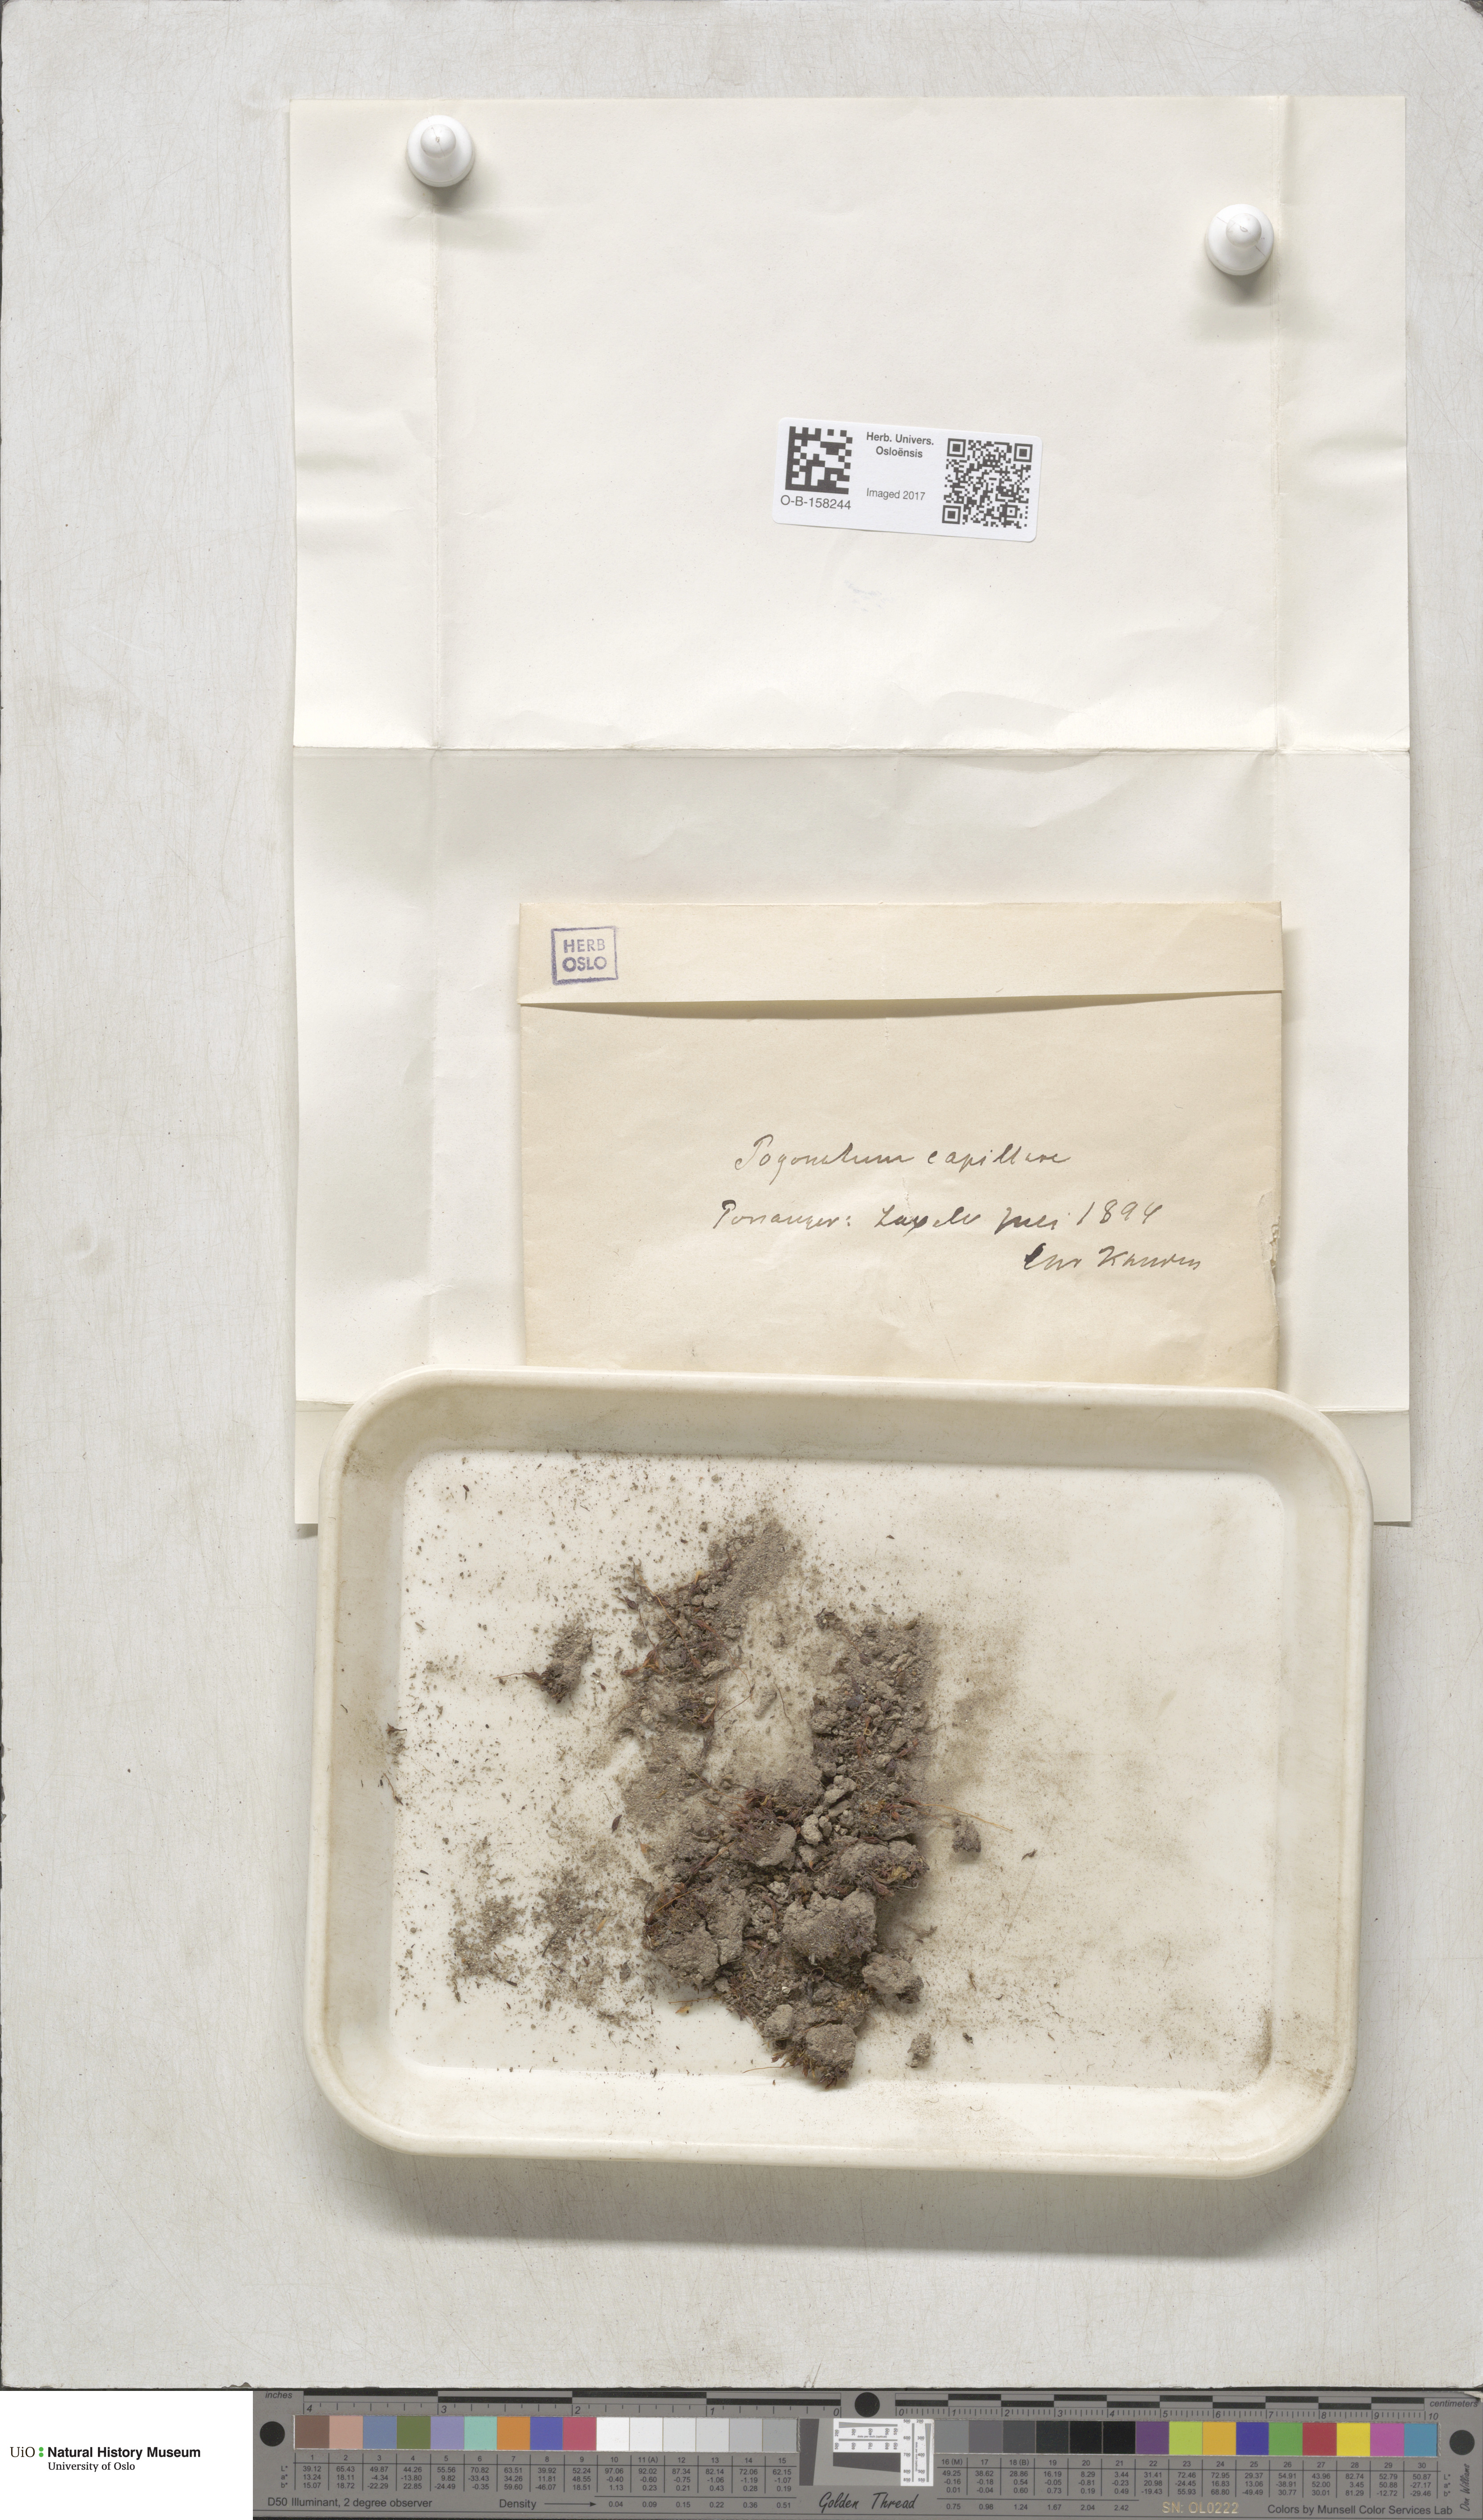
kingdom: Plantae
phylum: Bryophyta
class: Polytrichopsida
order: Polytrichales
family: Polytrichaceae
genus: Pogonatum
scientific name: Pogonatum dentatum
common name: Mountain hair moss
